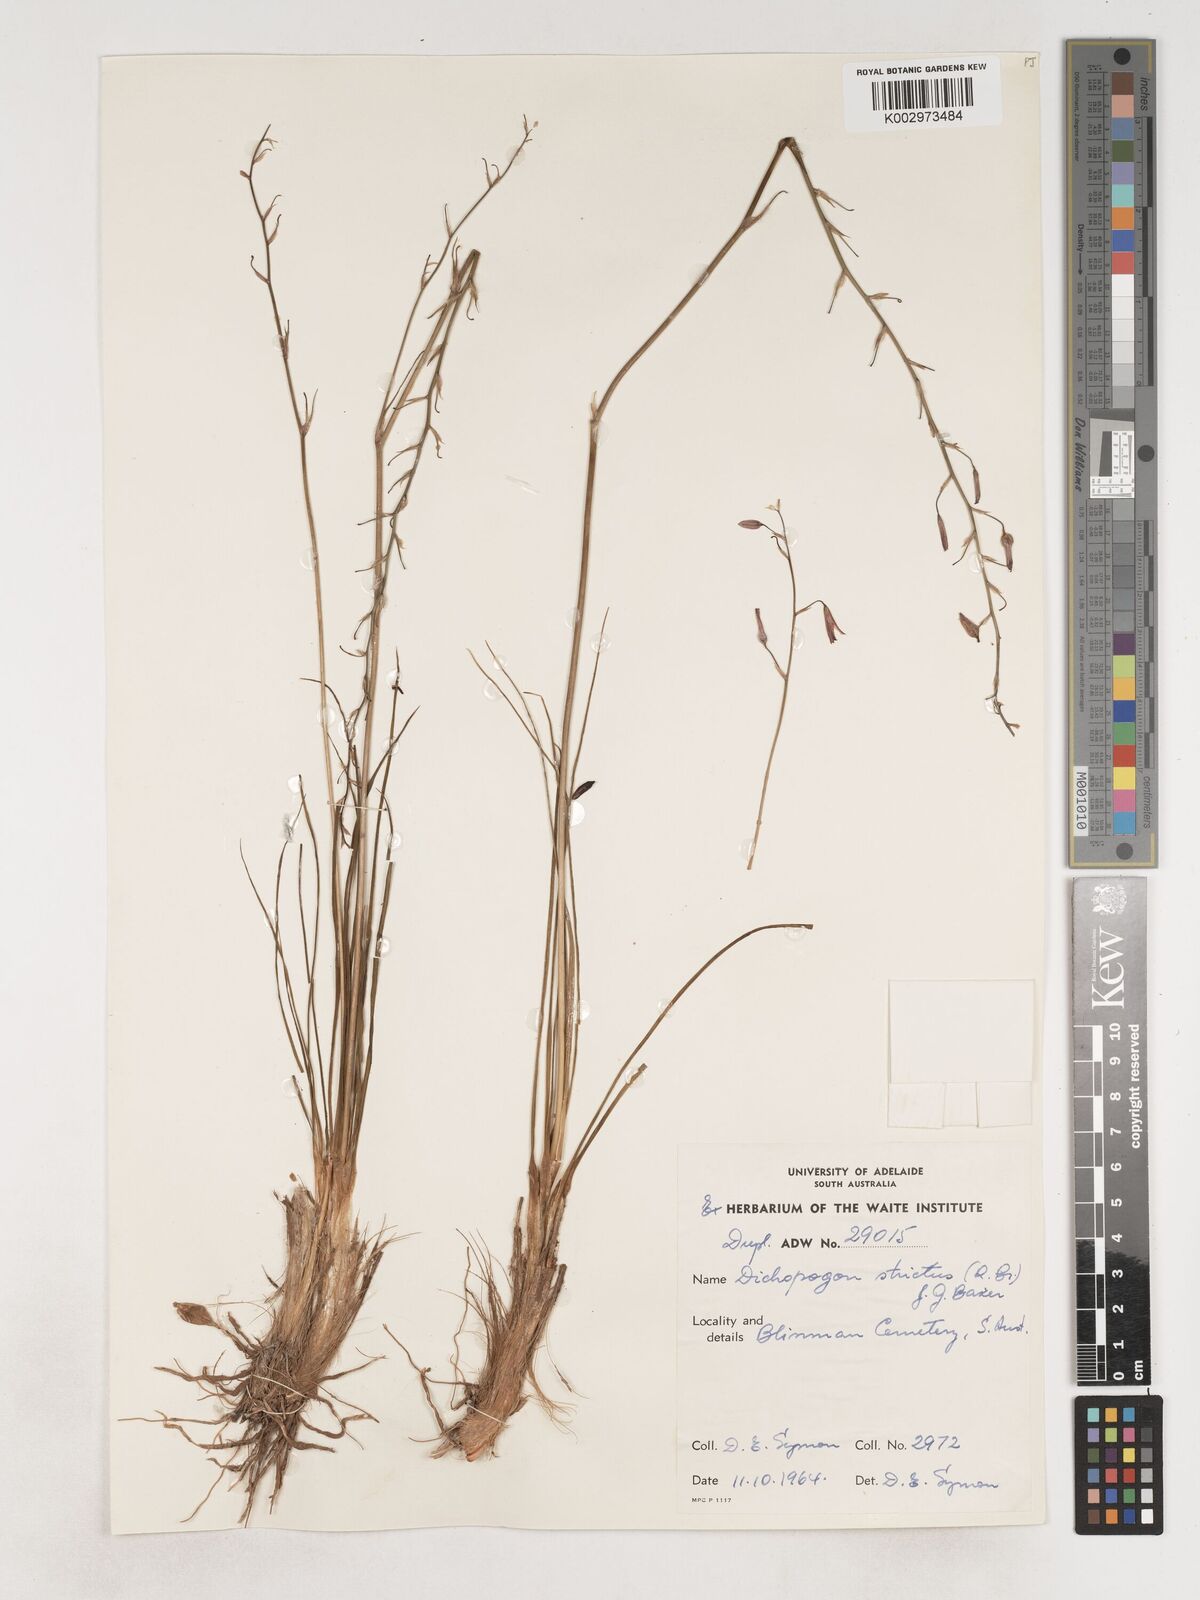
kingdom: Plantae
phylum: Tracheophyta
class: Liliopsida
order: Asparagales
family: Asparagaceae
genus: Arthropodium
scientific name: Arthropodium strictum
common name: Chocolate-lily
